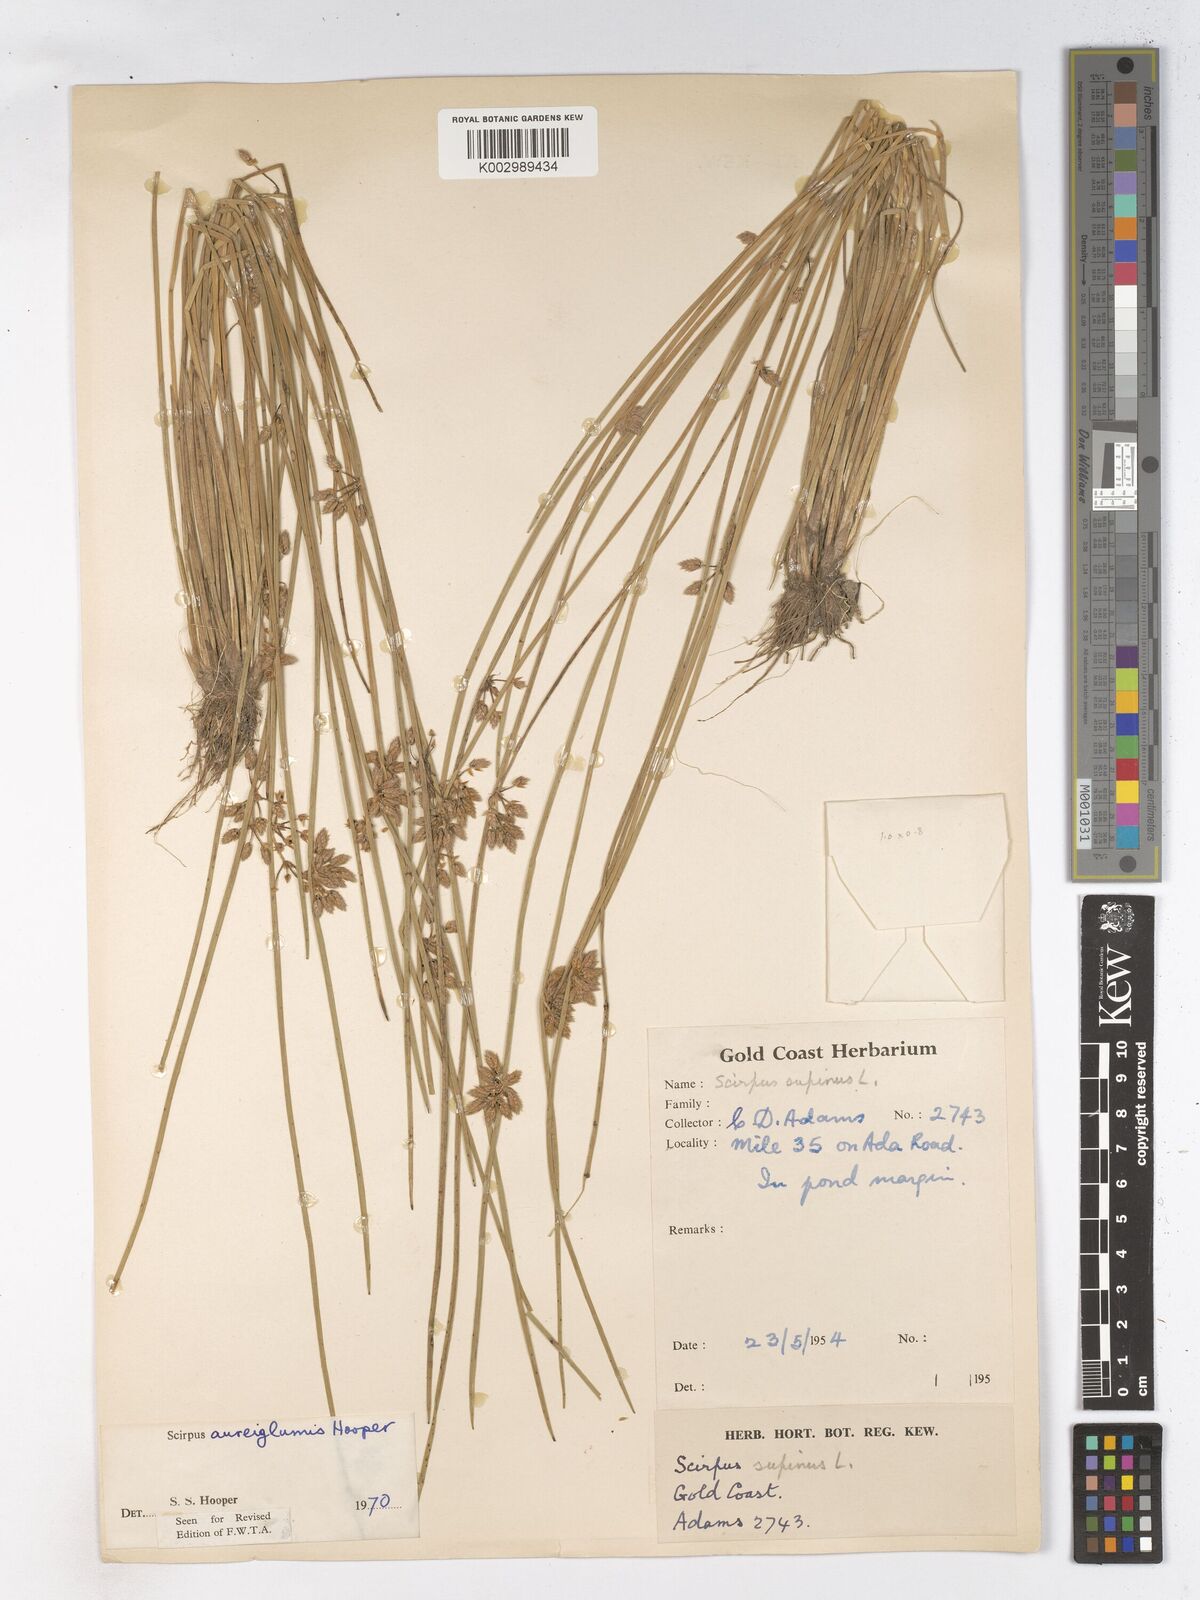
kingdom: Plantae
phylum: Tracheophyta
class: Liliopsida
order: Poales
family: Cyperaceae
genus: Schoenoplectiella
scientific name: Schoenoplectiella juncea
